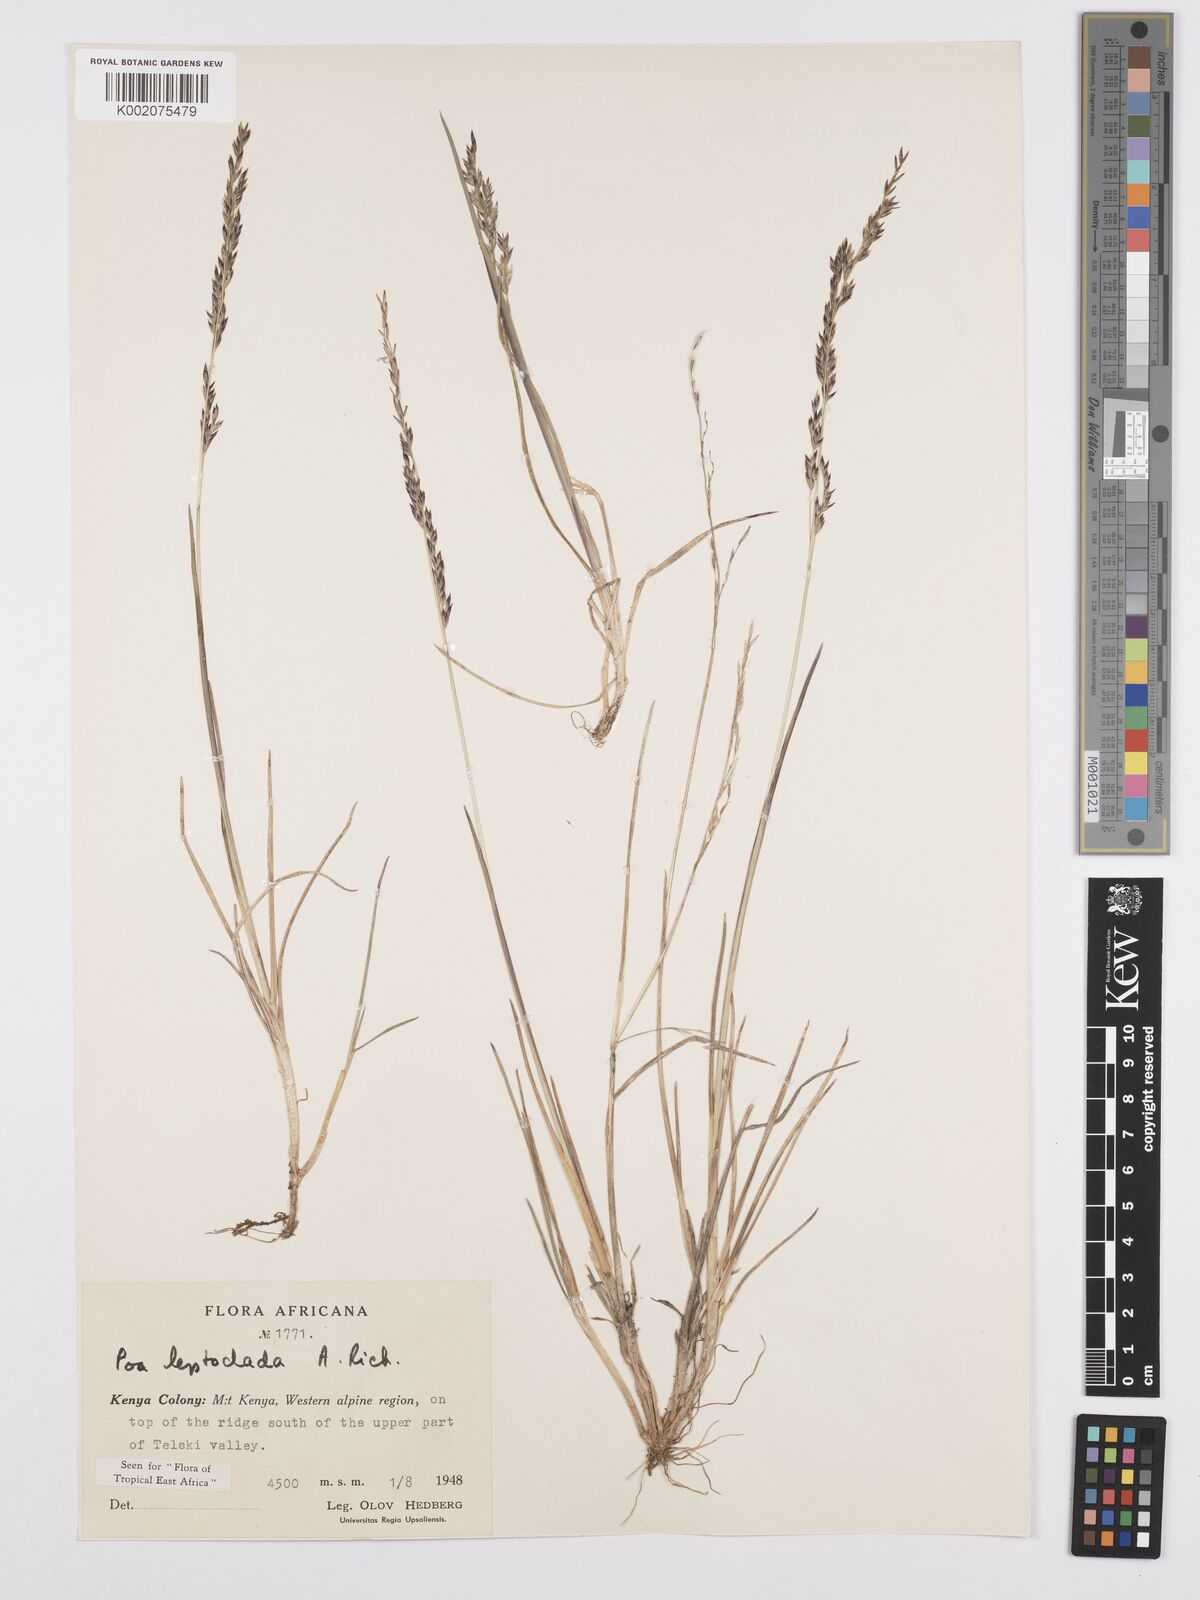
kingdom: Plantae
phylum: Tracheophyta
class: Liliopsida
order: Poales
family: Poaceae
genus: Poa
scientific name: Poa leptoclada
